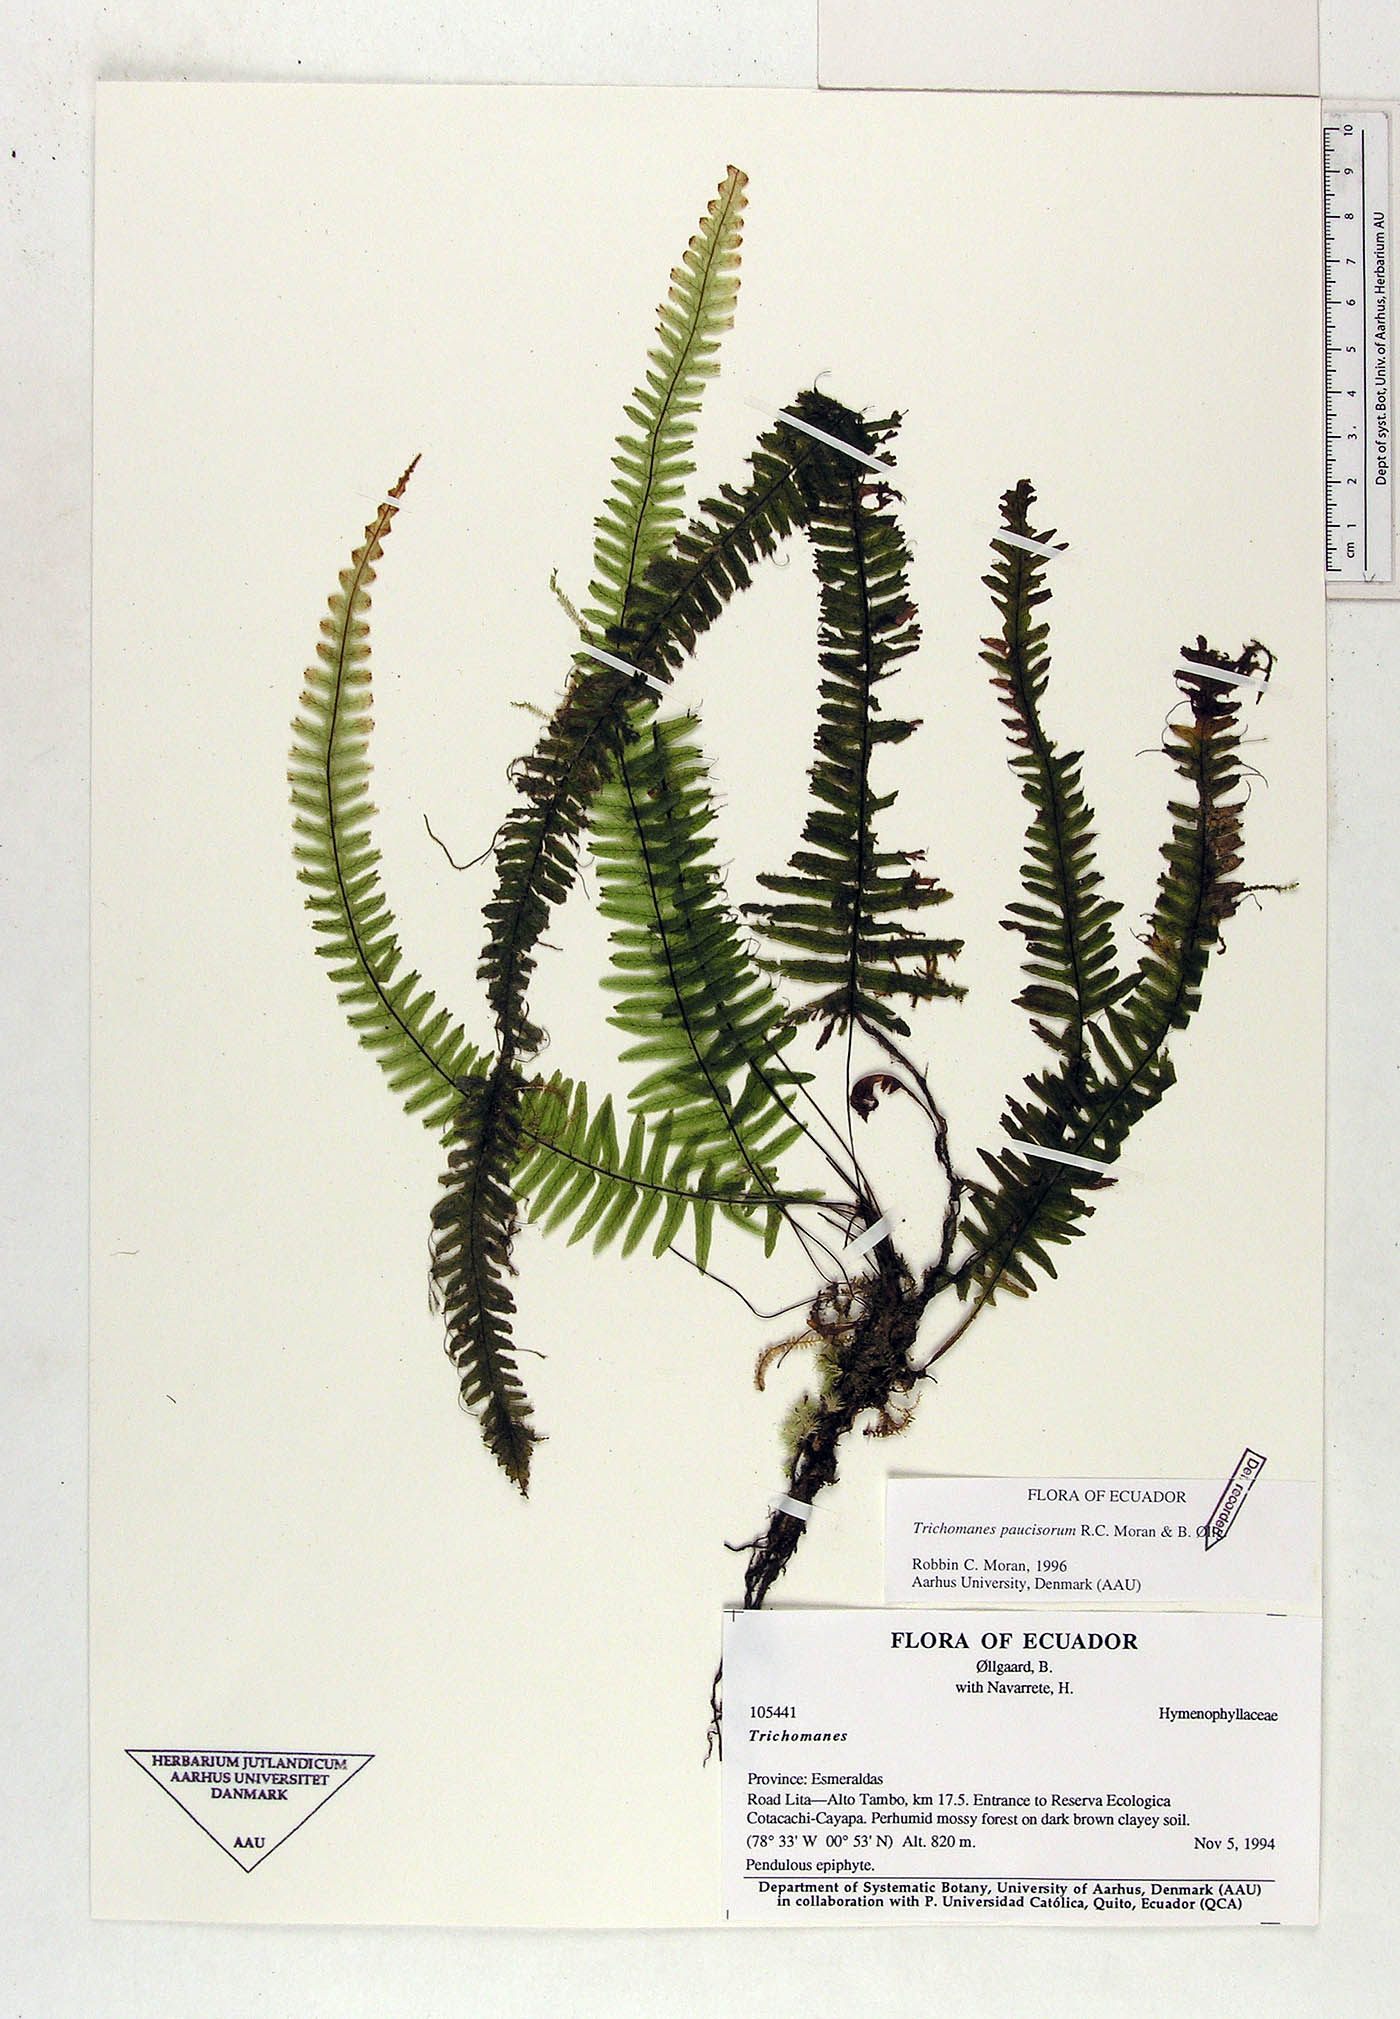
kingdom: Plantae
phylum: Tracheophyta
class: Polypodiopsida
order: Hymenophyllales
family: Hymenophyllaceae
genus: Trichomanes
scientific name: Trichomanes paucisorum
